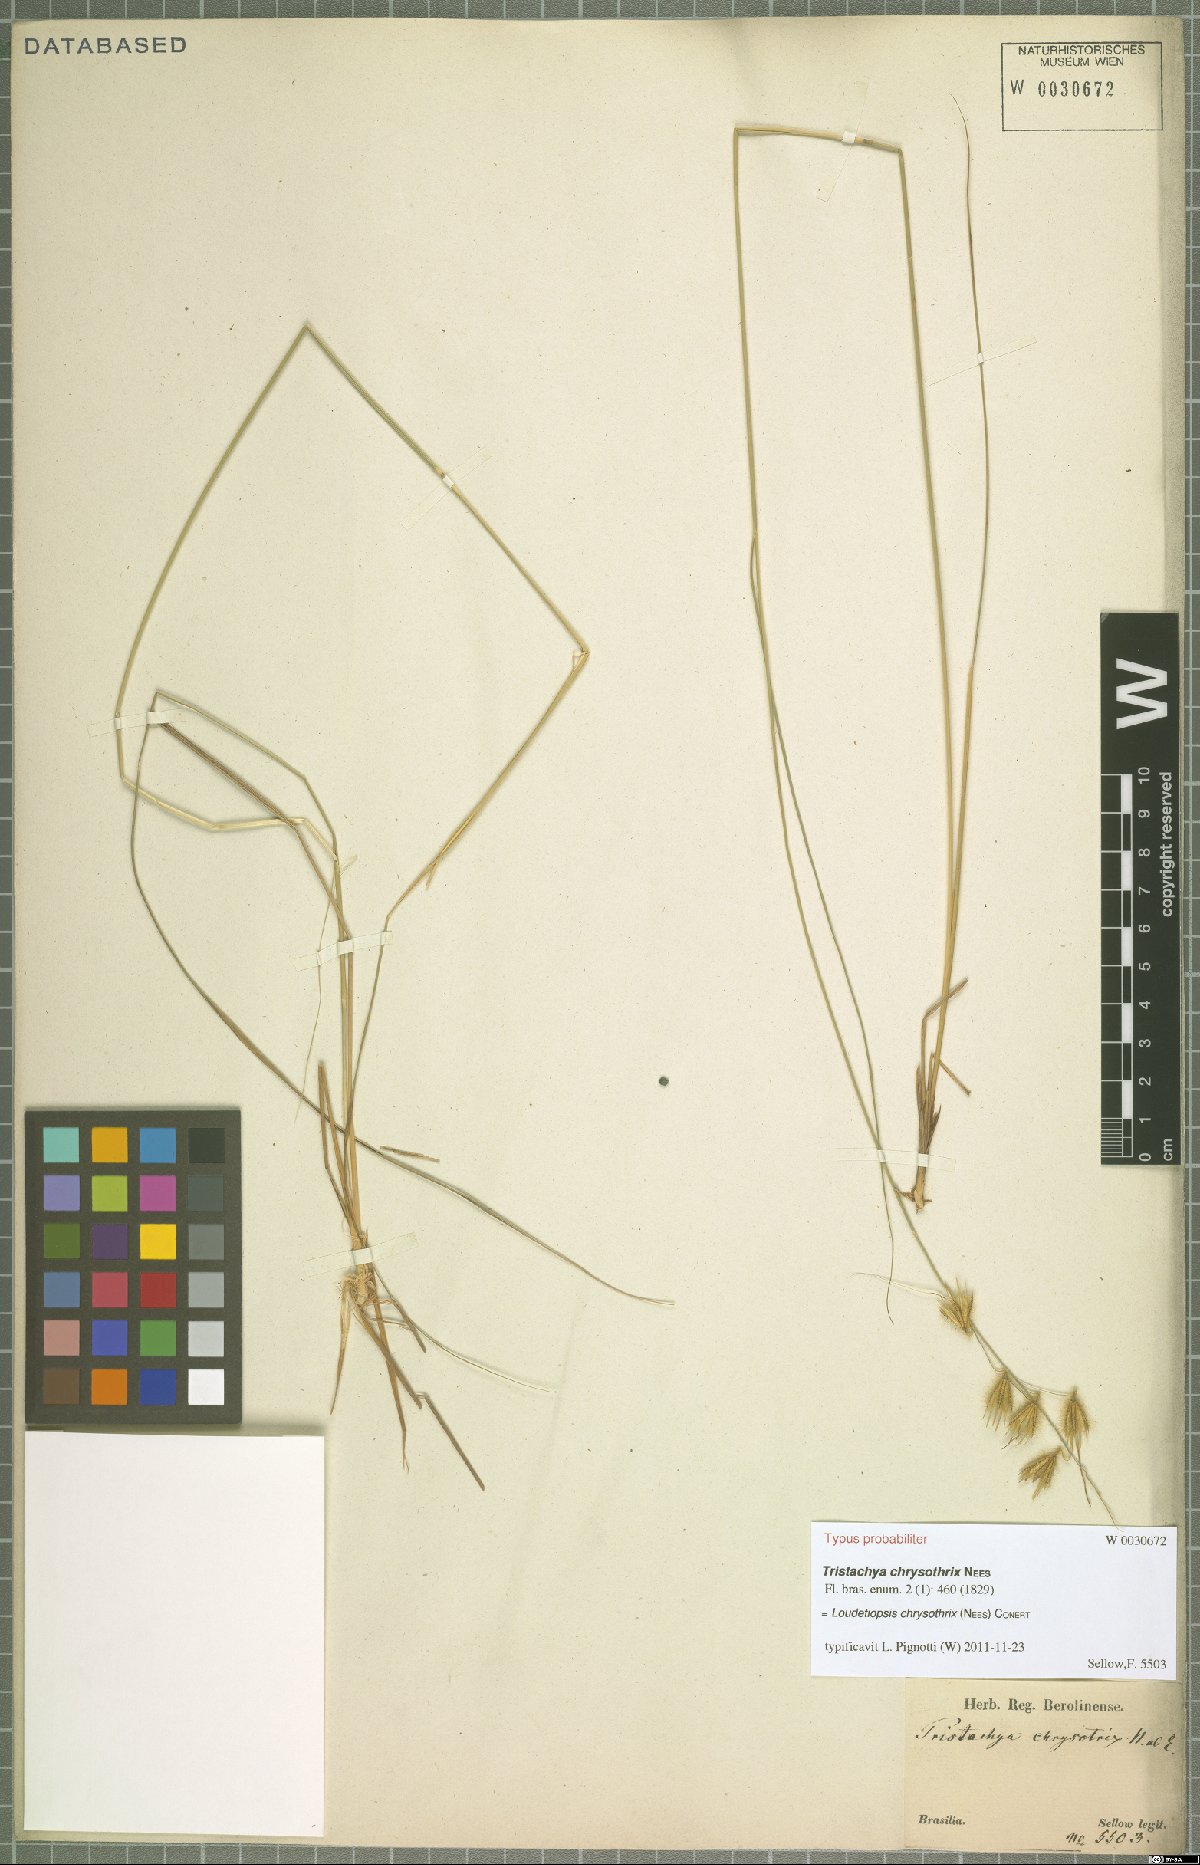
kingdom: Plantae
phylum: Tracheophyta
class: Liliopsida
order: Poales
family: Poaceae
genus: Loudetiopsis
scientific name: Loudetiopsis chrysothrix
